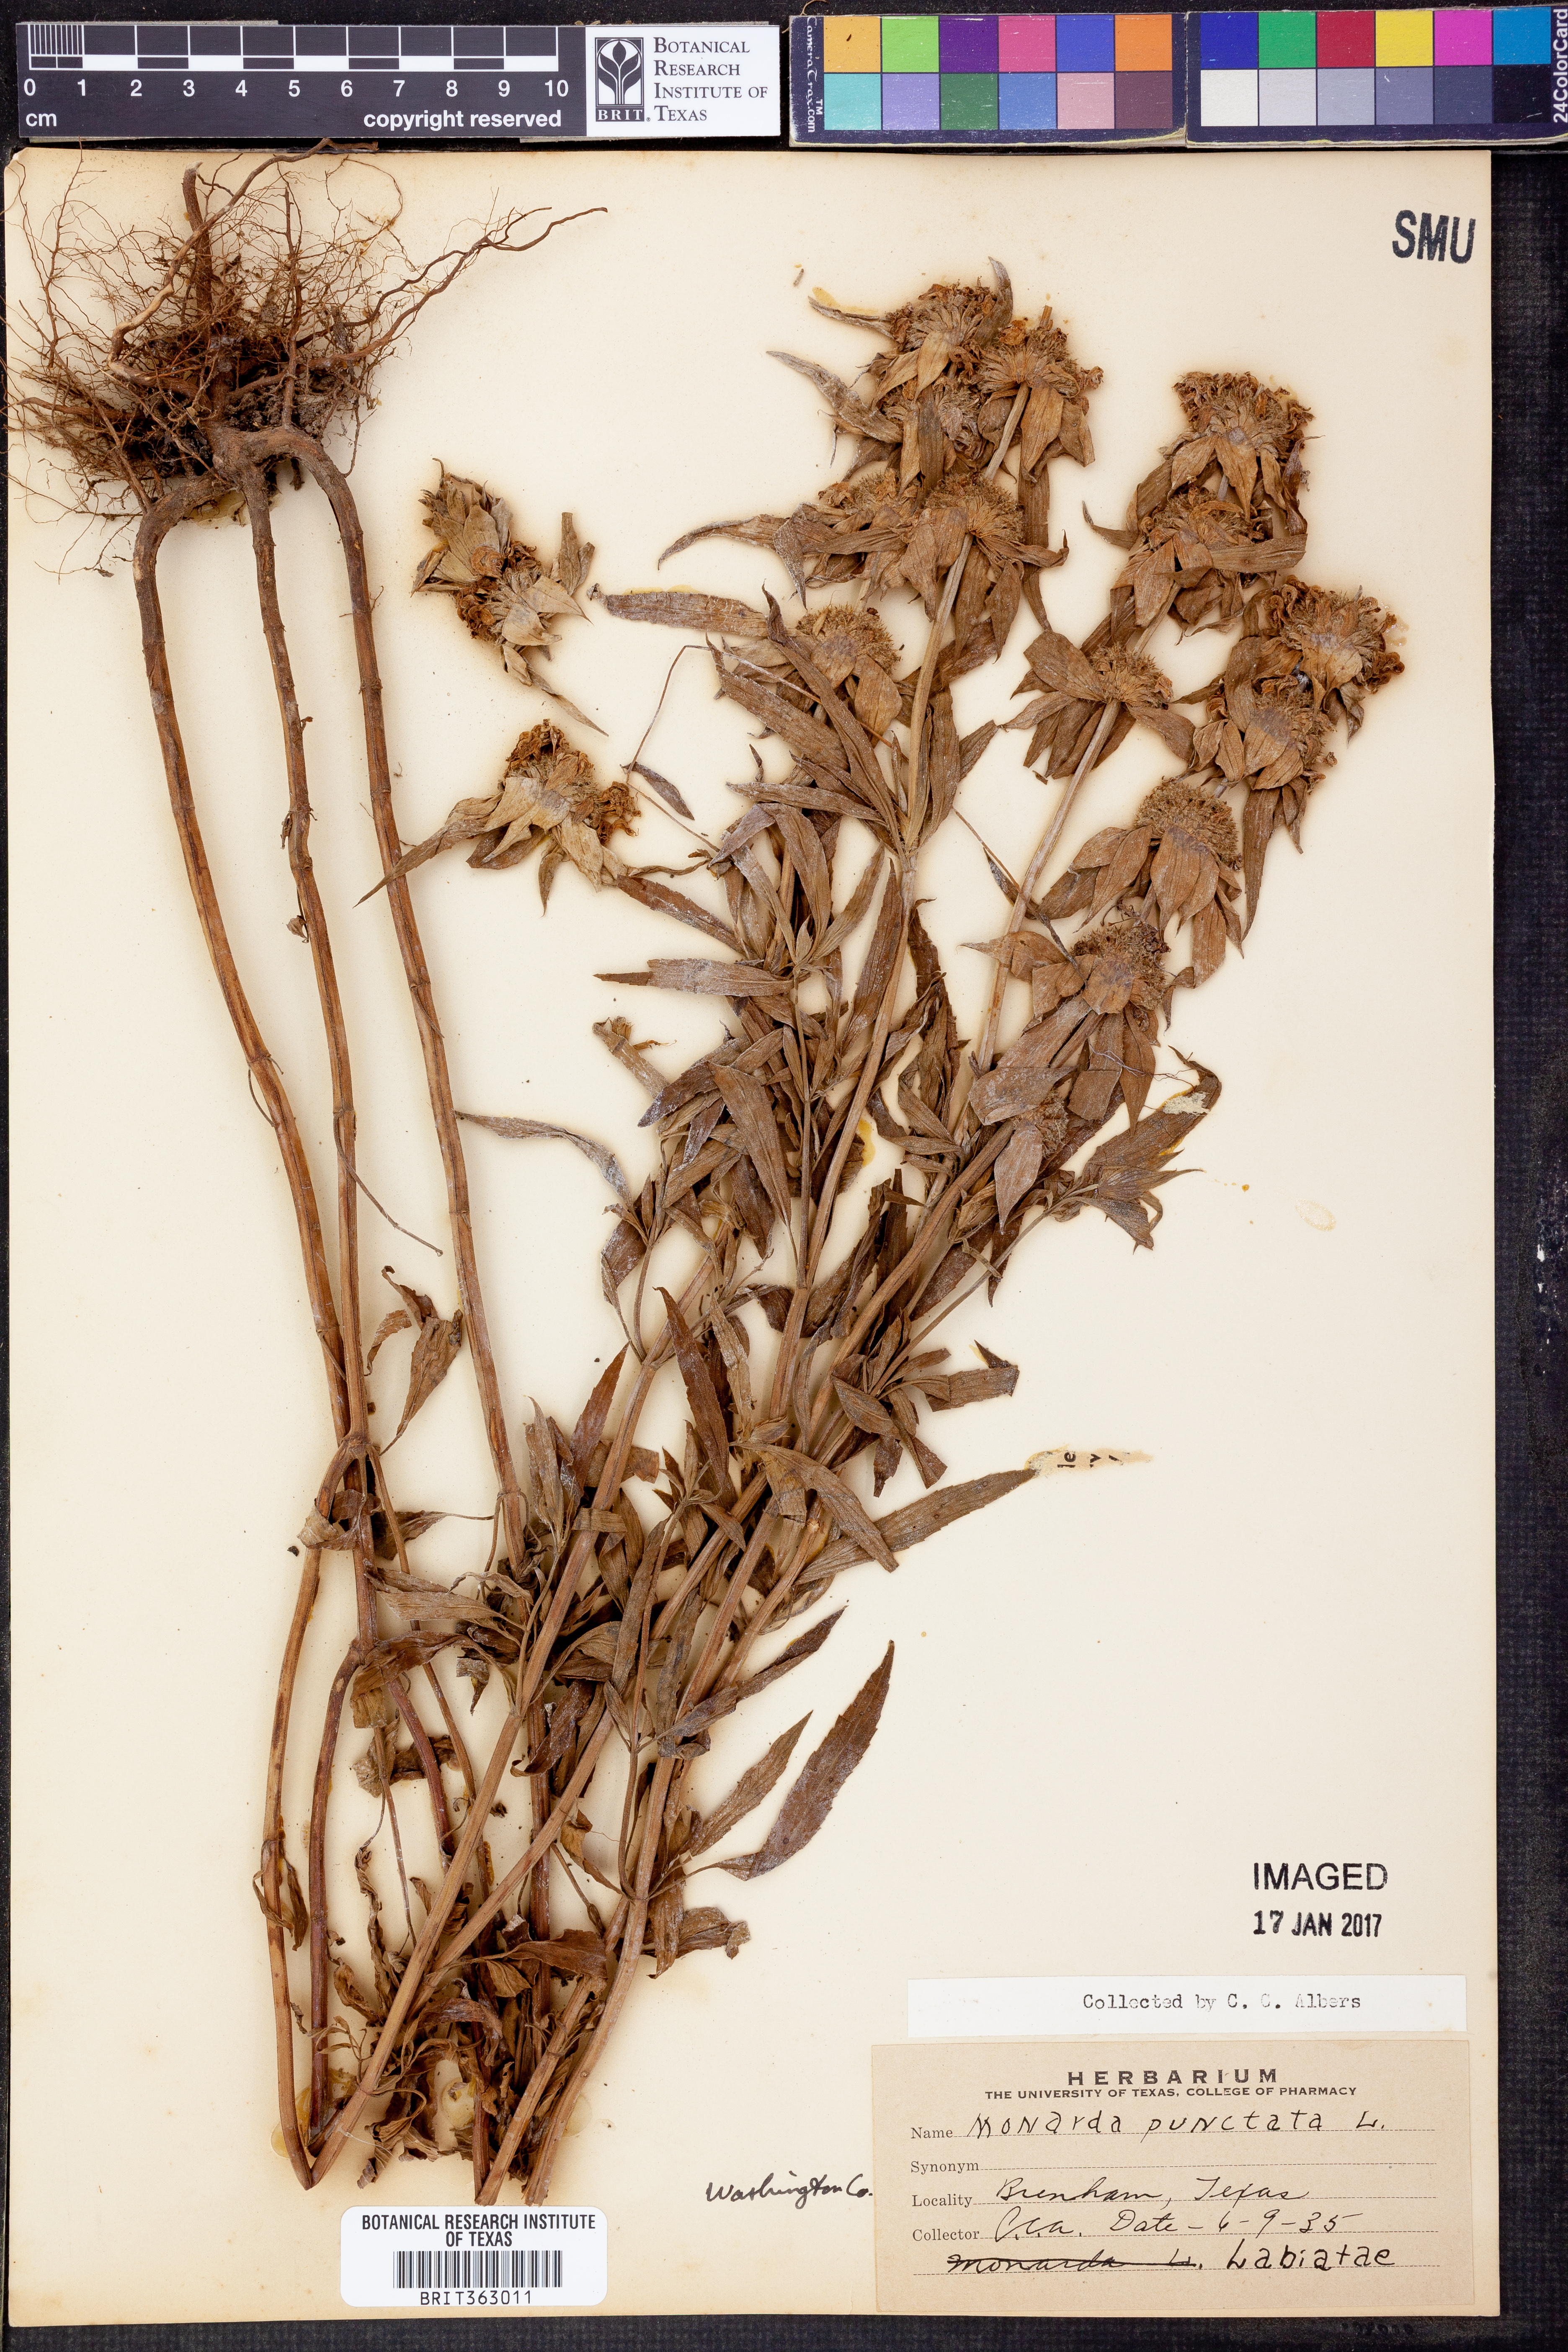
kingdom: Plantae
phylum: Tracheophyta
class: Magnoliopsida
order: Lamiales
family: Lamiaceae
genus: Monarda
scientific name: Monarda punctata
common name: Dotted monarda
